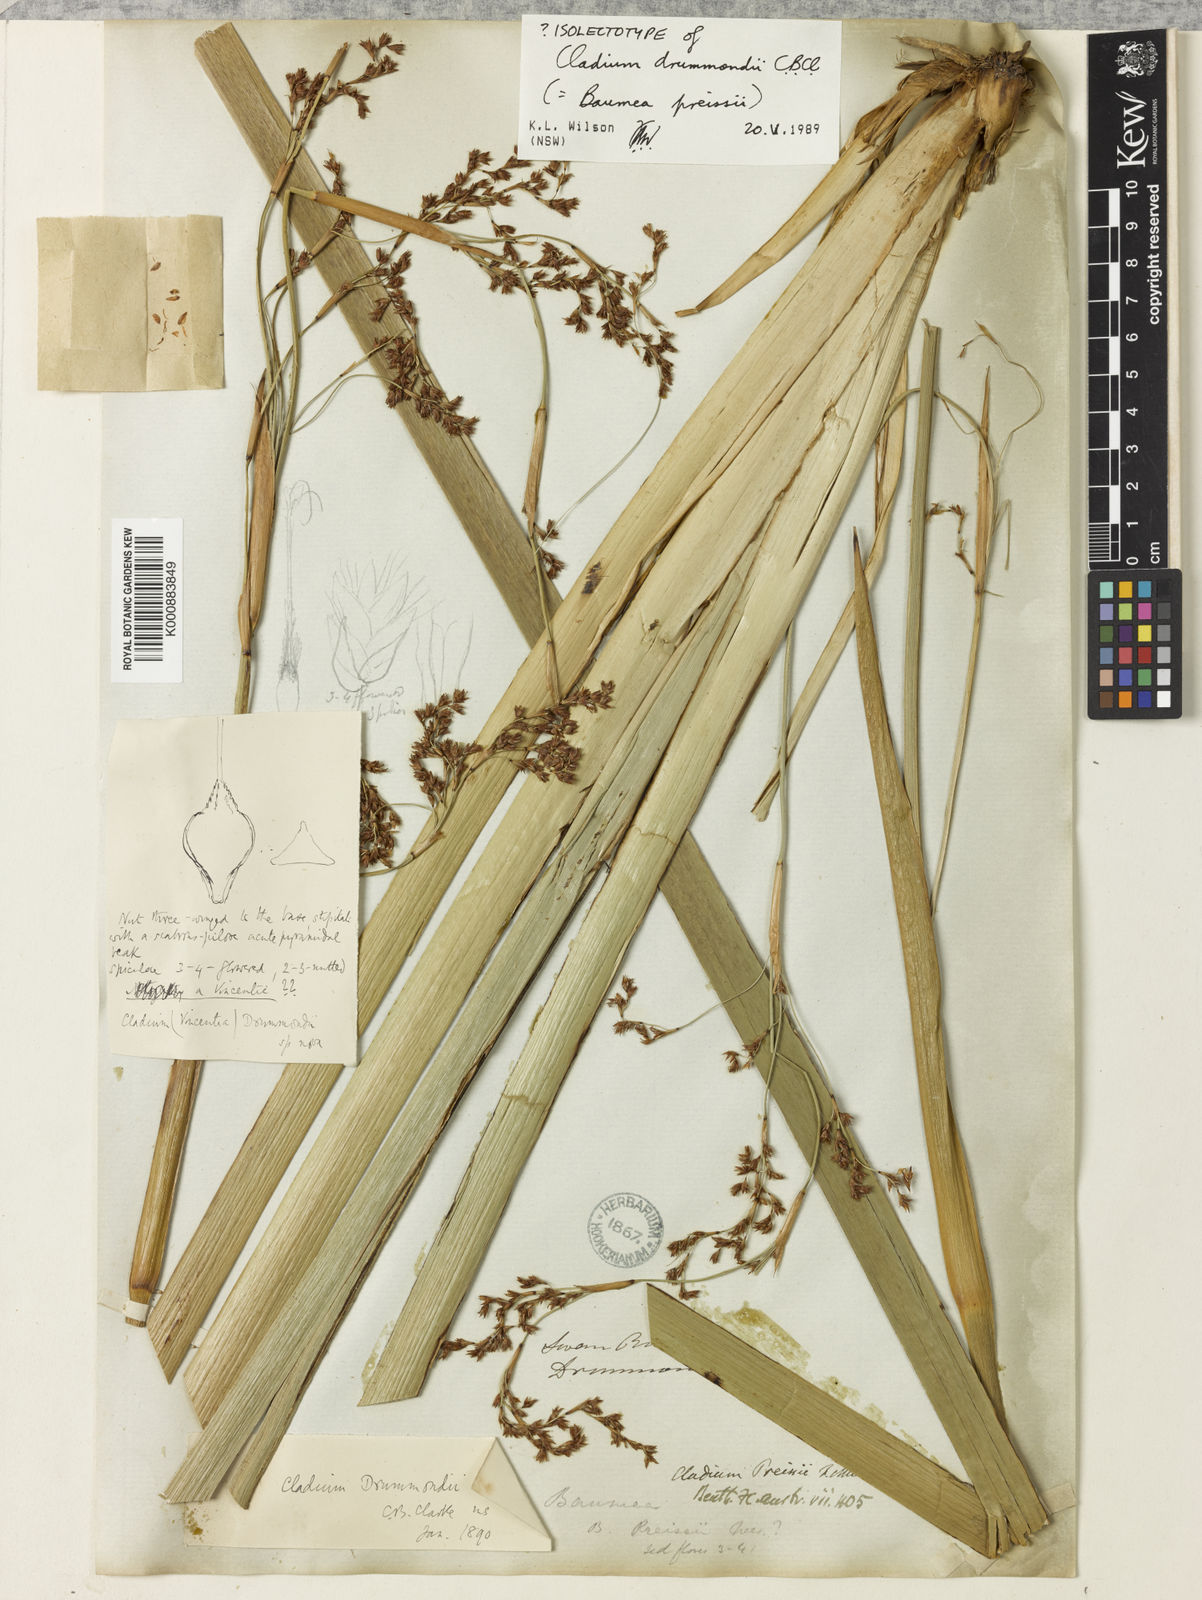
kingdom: Plantae
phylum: Tracheophyta
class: Liliopsida
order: Poales
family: Cyperaceae
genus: Machaerina
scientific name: Machaerina preissii
